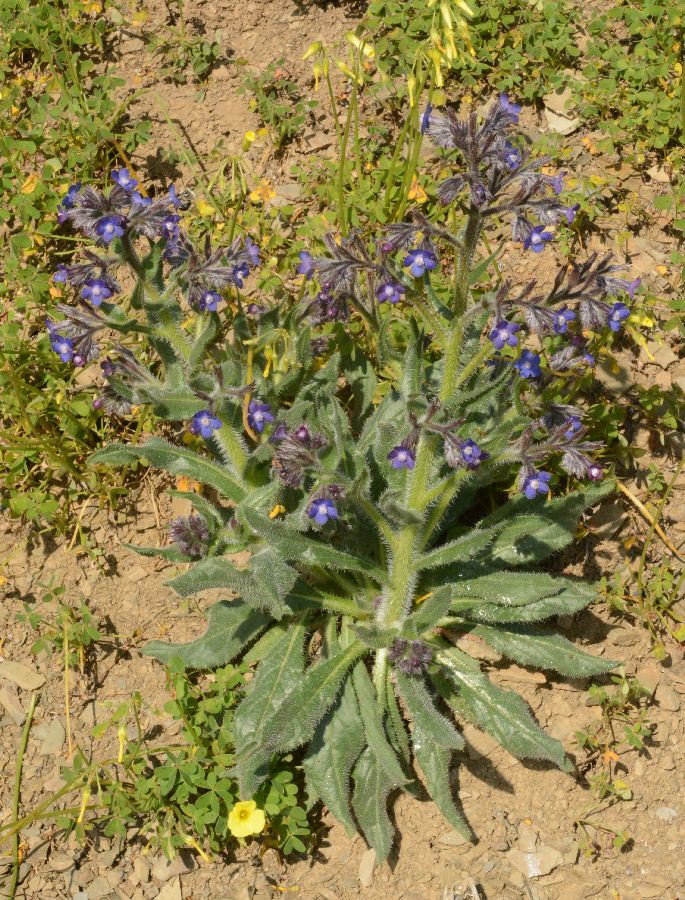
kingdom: Plantae
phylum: Tracheophyta
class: Magnoliopsida
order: Boraginales
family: Boraginaceae
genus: Anchusa
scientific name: Anchusa hybrida
